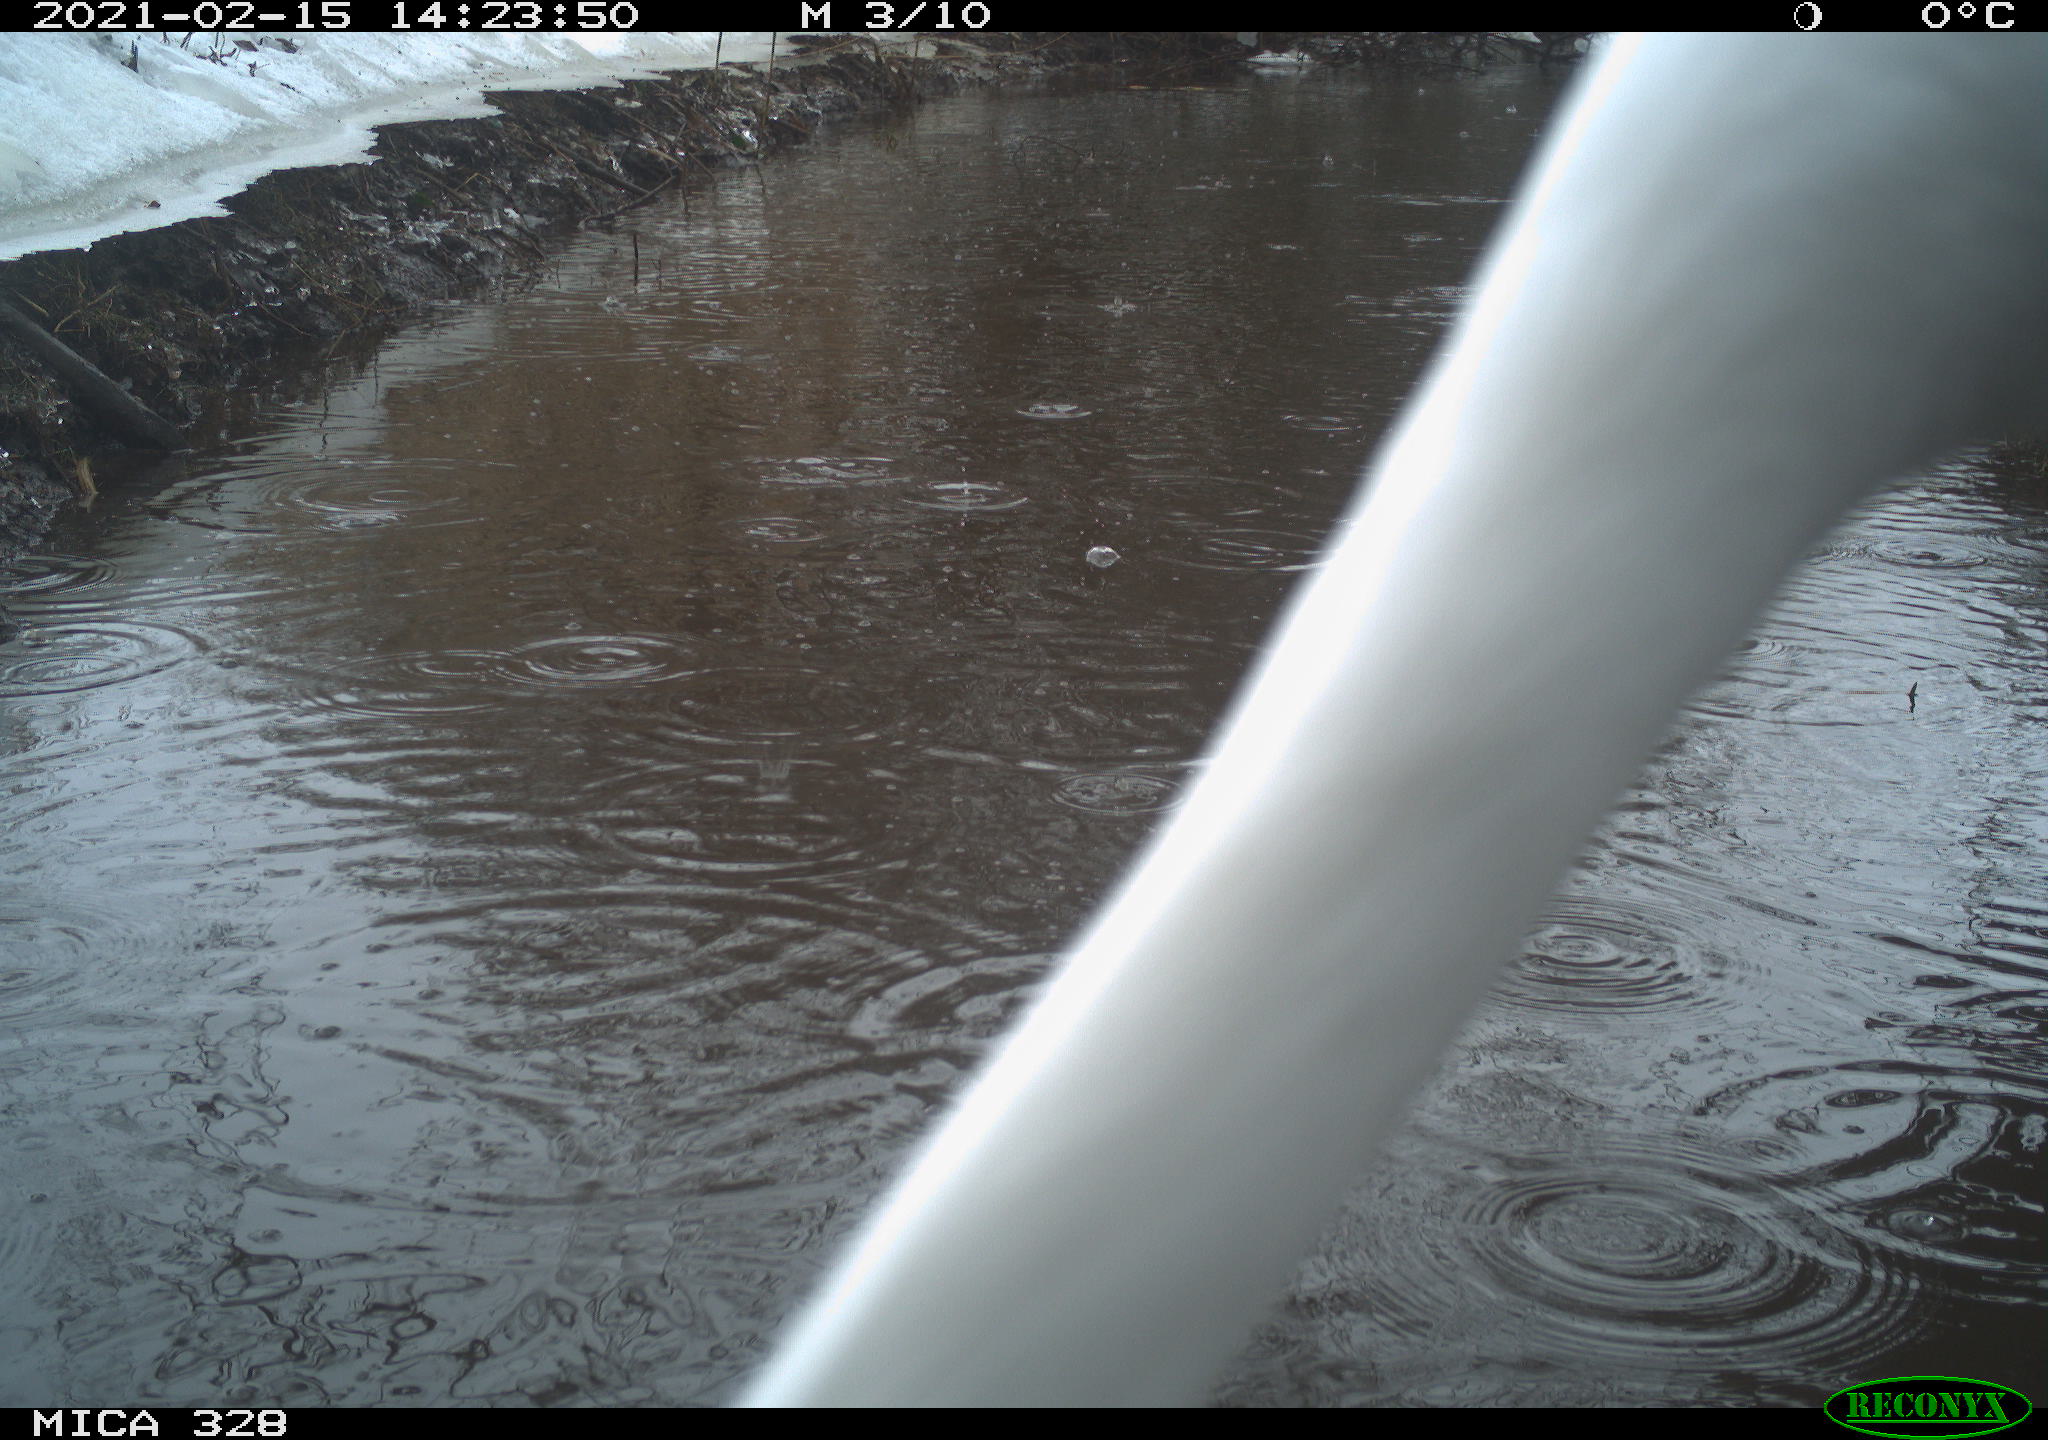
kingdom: Animalia
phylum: Chordata
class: Aves
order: Pelecaniformes
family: Ardeidae
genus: Ardea
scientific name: Ardea alba
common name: Great egret
